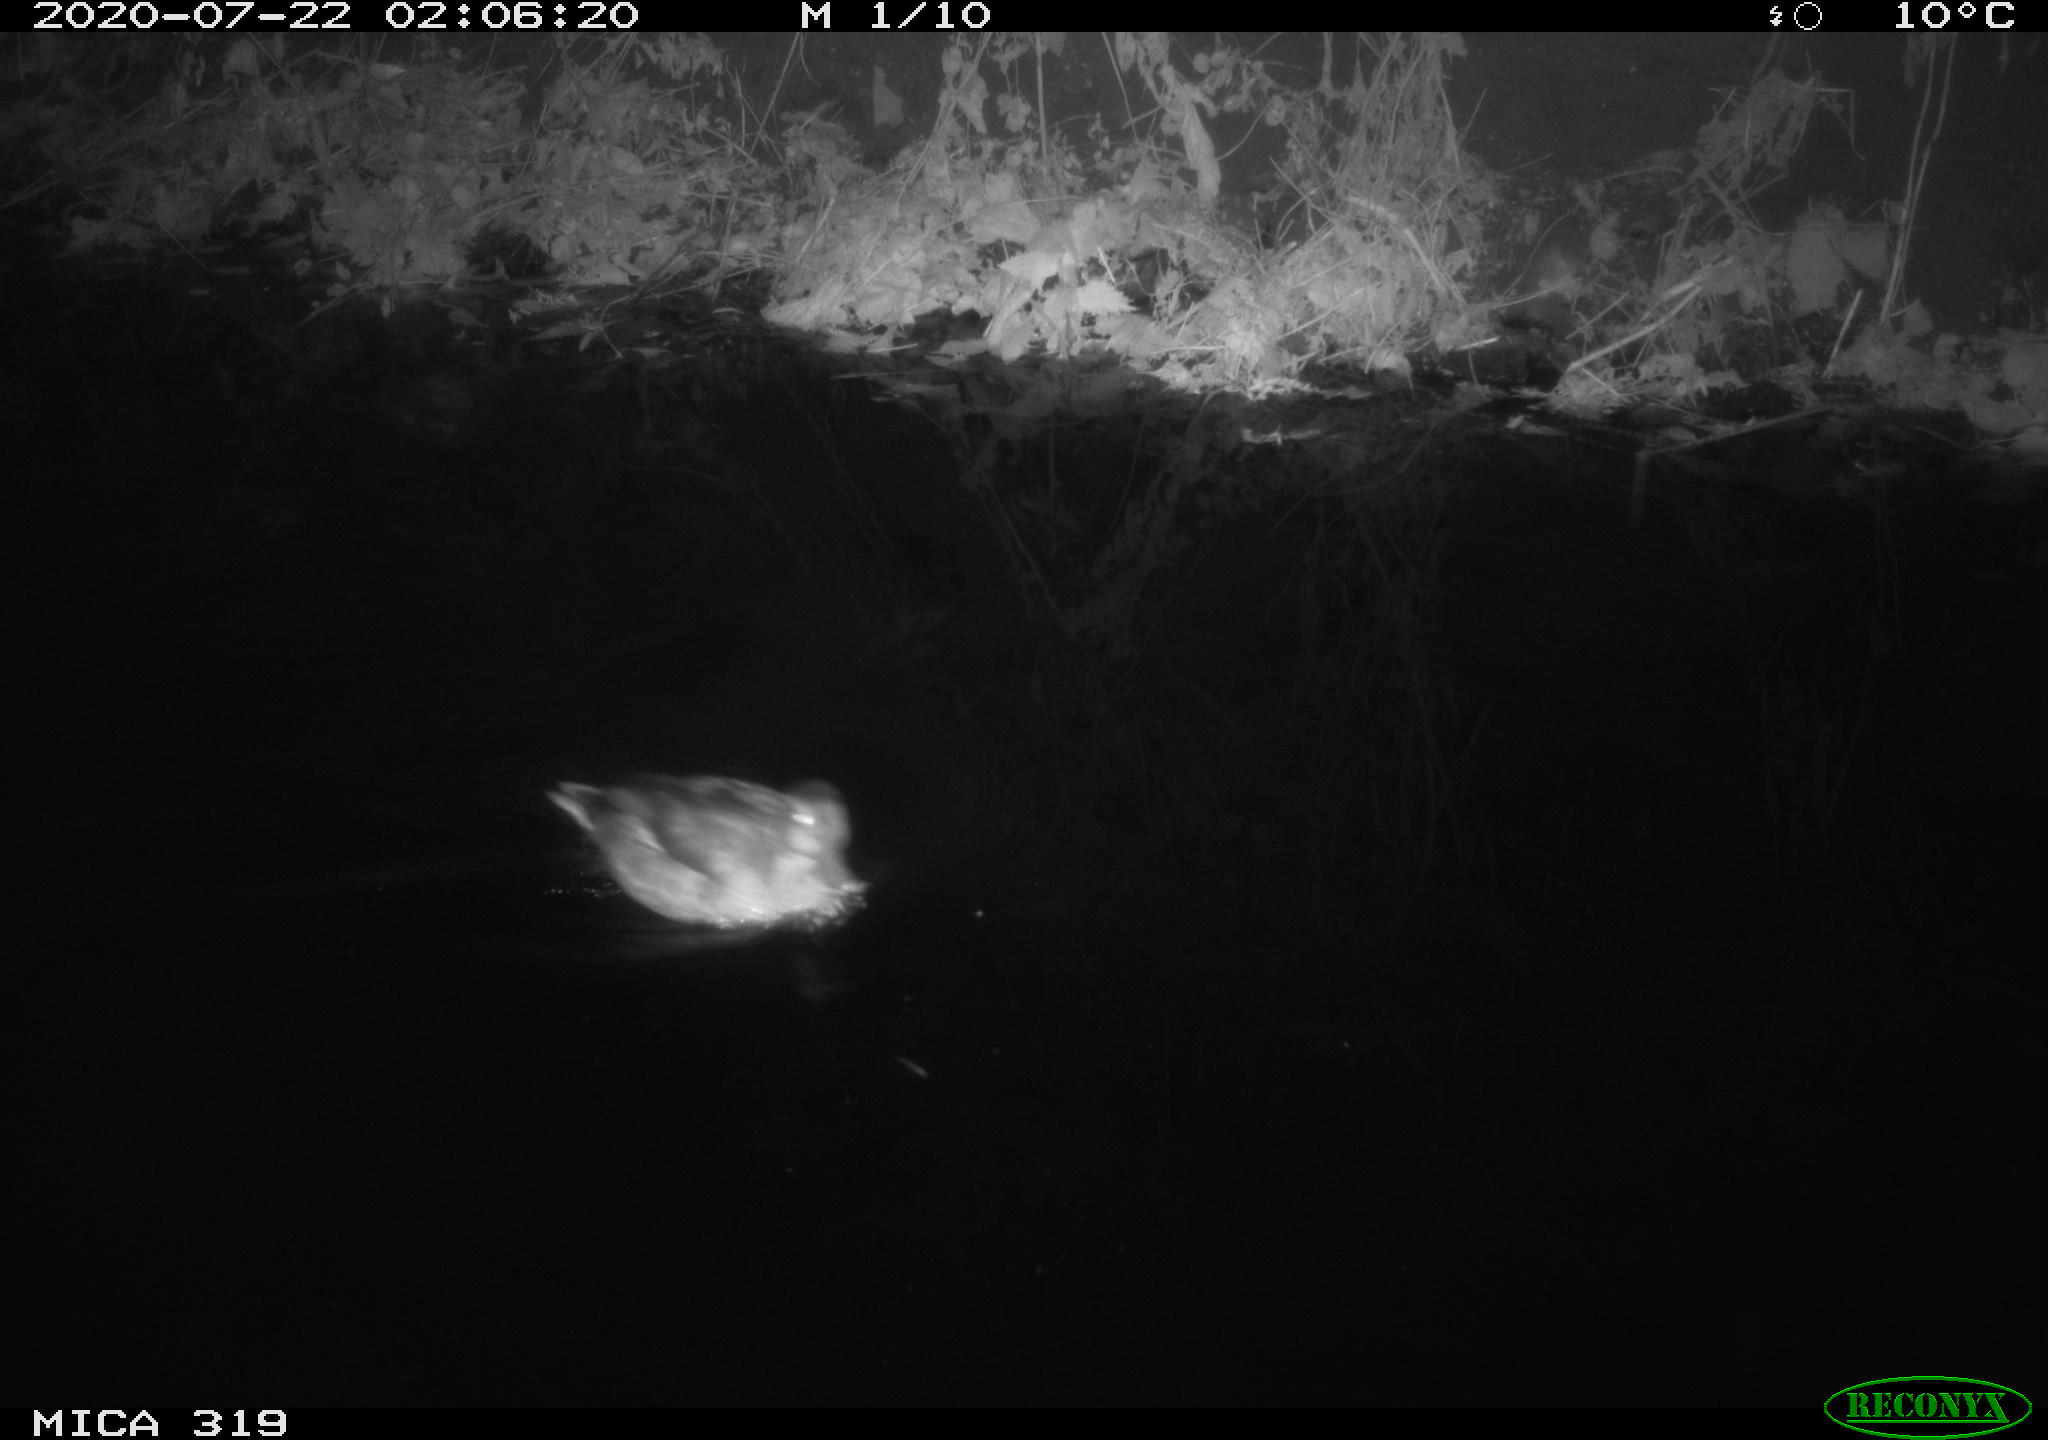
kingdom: Animalia
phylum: Chordata
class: Aves
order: Anseriformes
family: Anatidae
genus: Anas
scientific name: Anas platyrhynchos
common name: Mallard
